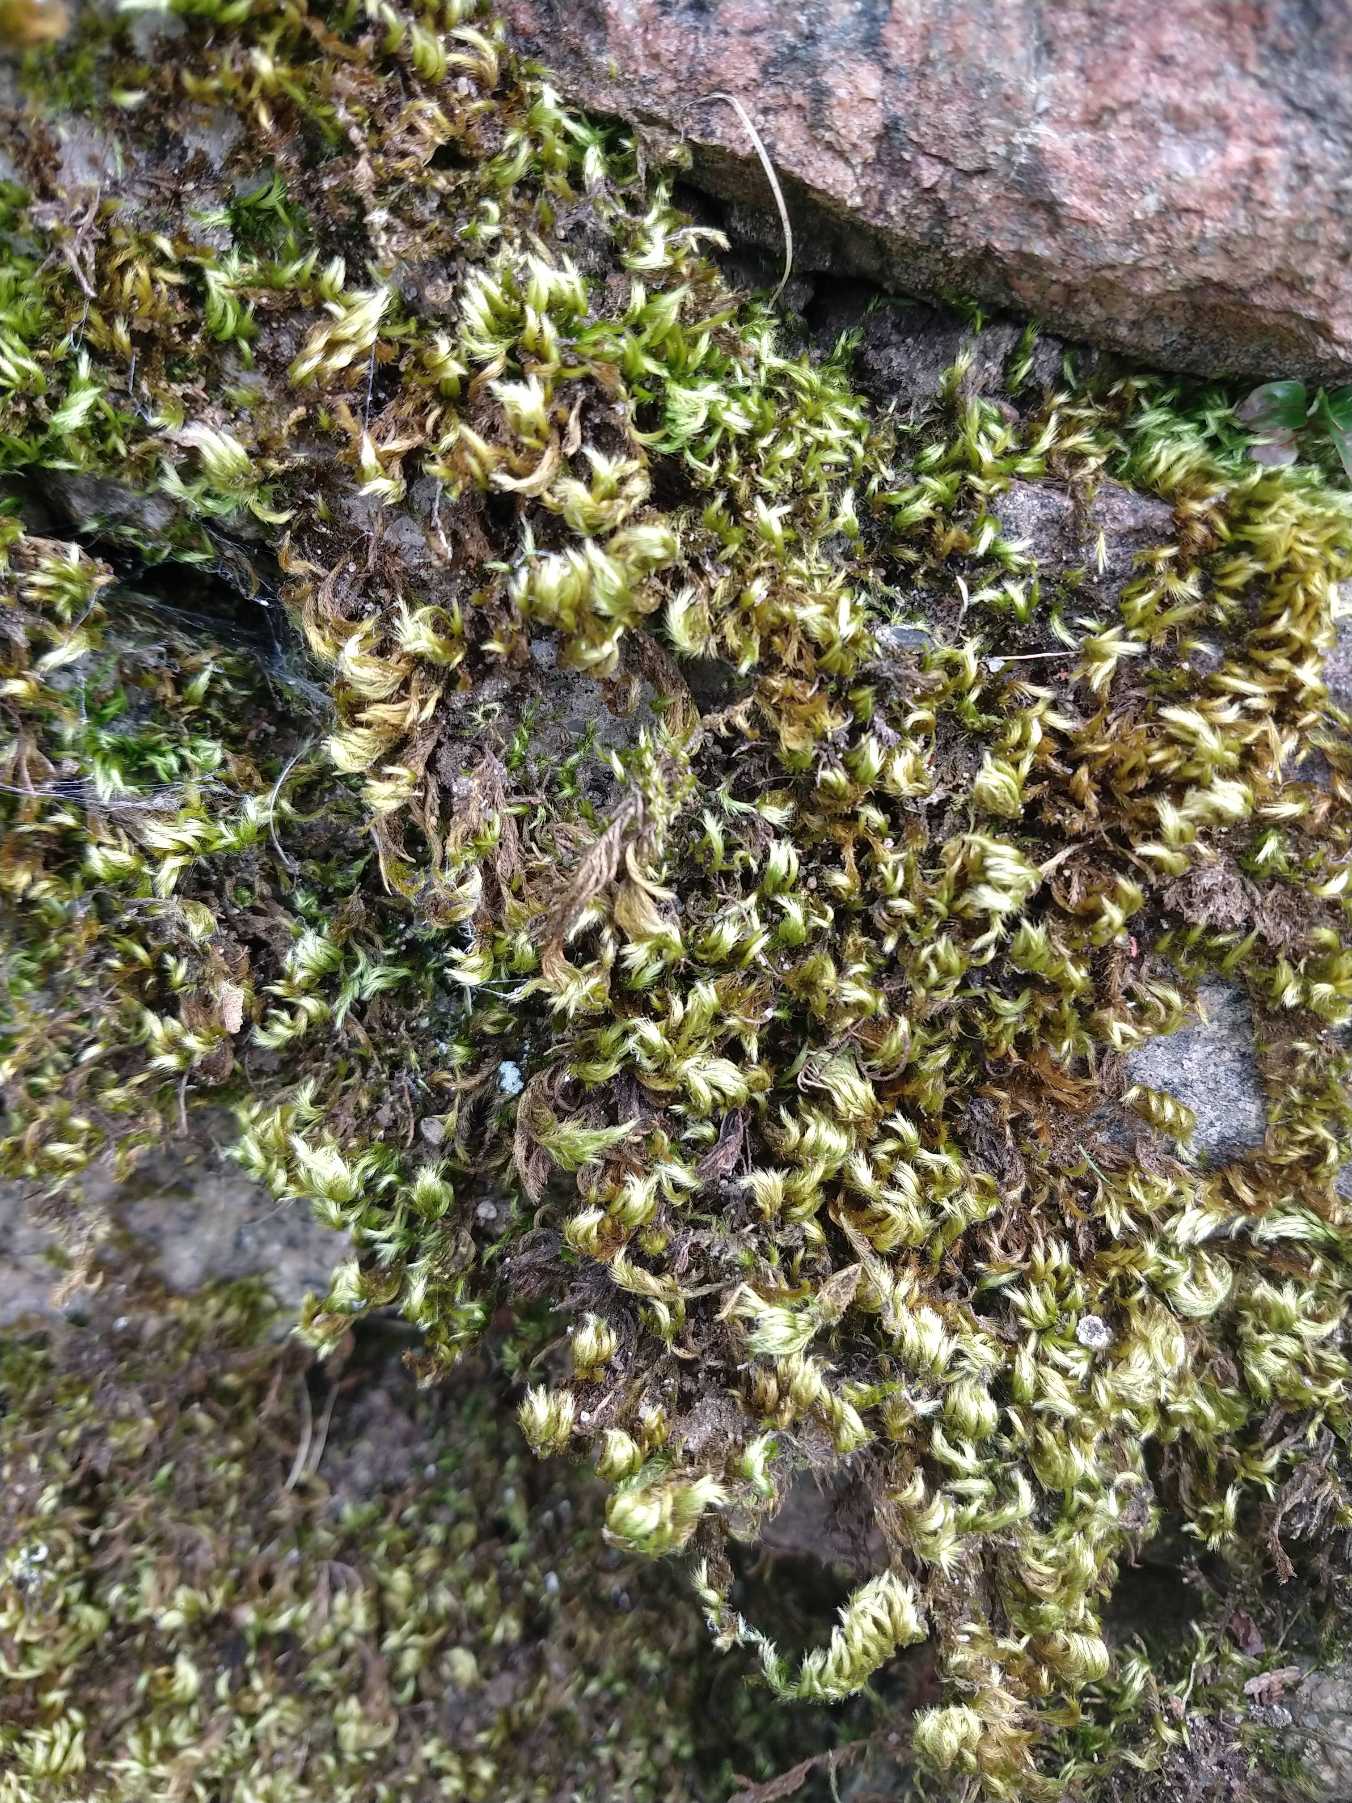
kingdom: Plantae
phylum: Bryophyta
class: Bryopsida
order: Hypnales
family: Brachytheciaceae
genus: Homalothecium
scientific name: Homalothecium sericeum
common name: Krybende silkemos
